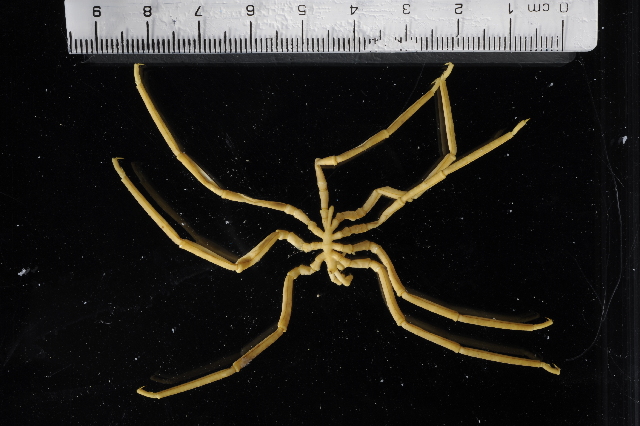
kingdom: Animalia
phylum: Arthropoda
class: Pycnogonida
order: Pantopoda
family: Pallenopsidae
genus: Pallenopsis
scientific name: Pallenopsis latefrontalis
